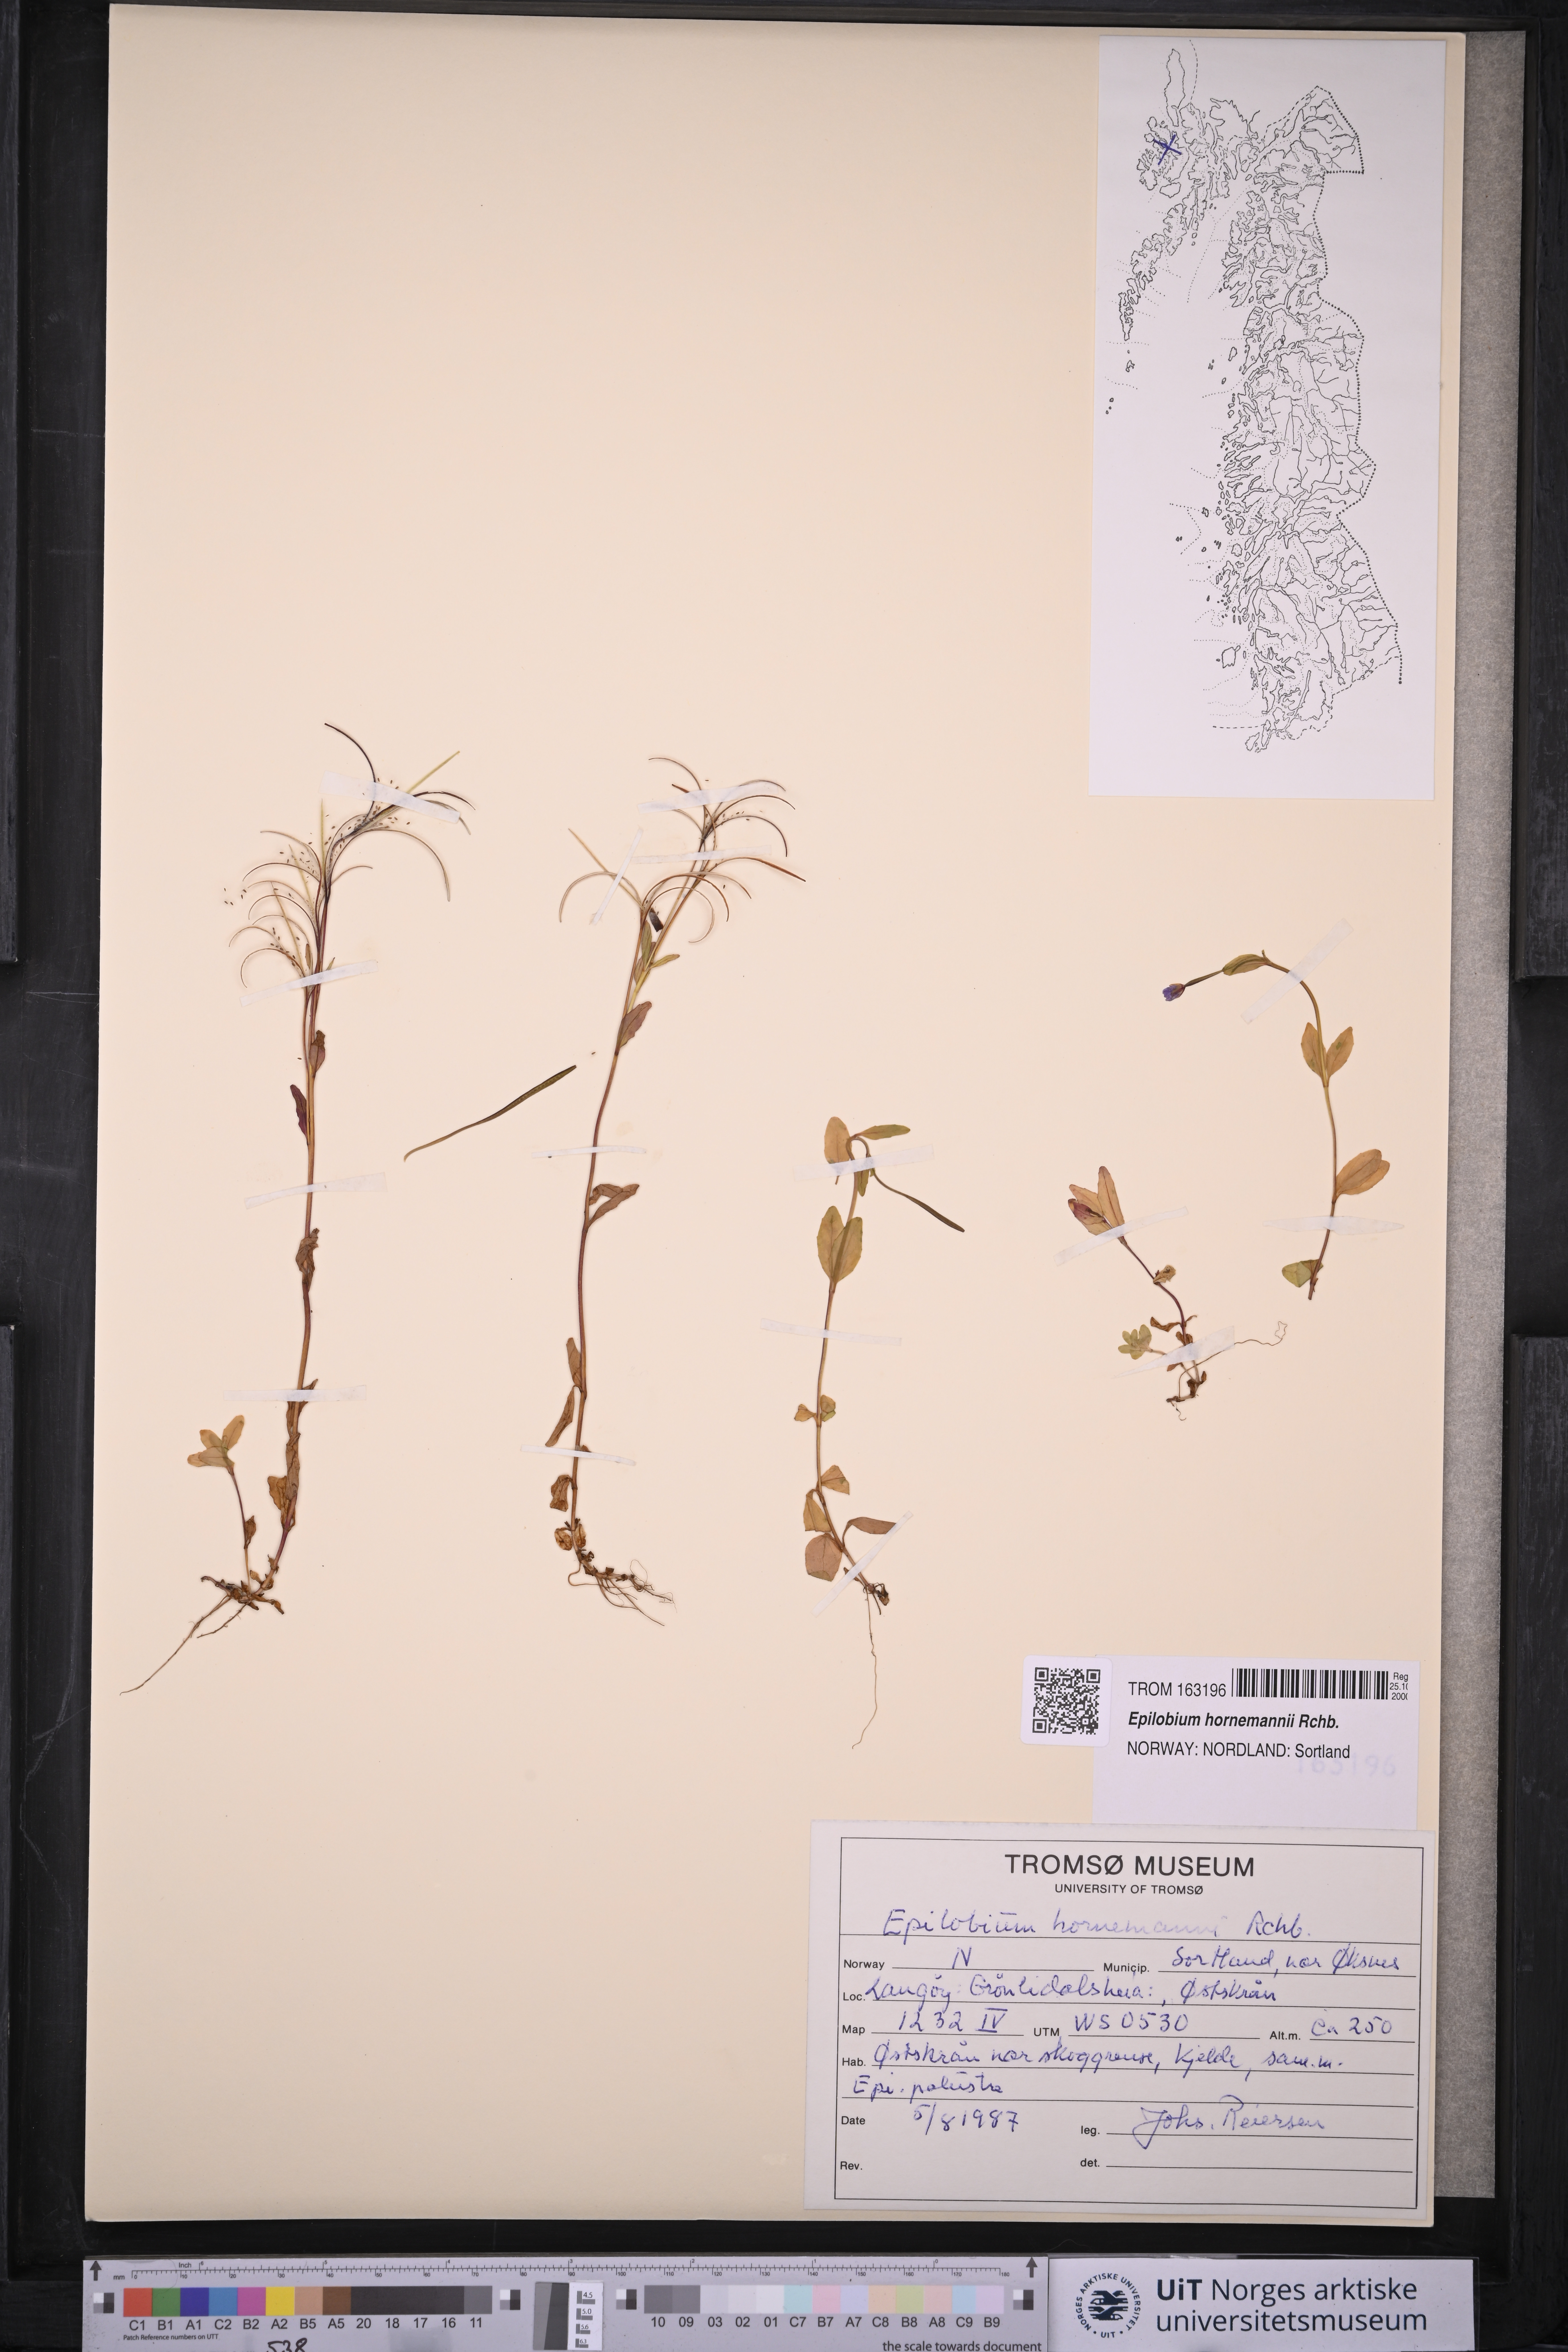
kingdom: Plantae
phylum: Tracheophyta
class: Magnoliopsida
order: Myrtales
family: Onagraceae
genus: Epilobium
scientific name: Epilobium hornemannii
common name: Hornemann's willowherb
